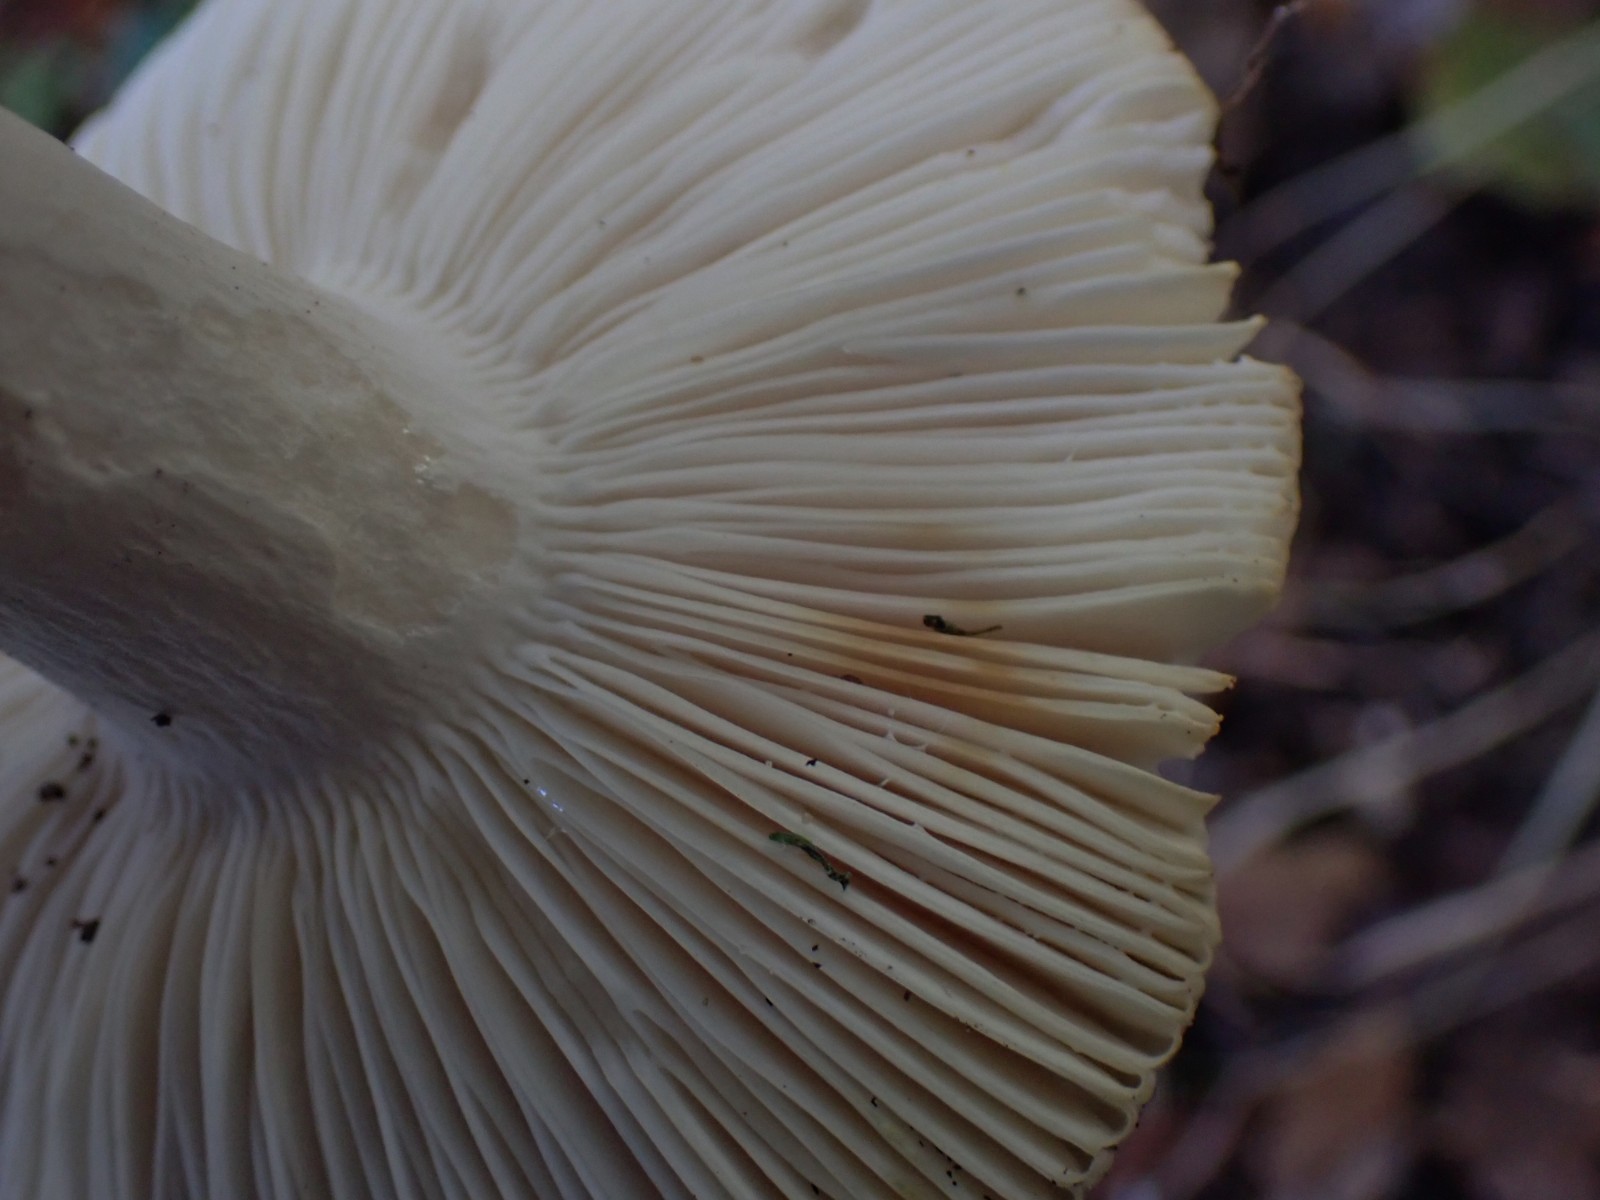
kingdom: Fungi
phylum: Basidiomycota
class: Agaricomycetes
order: Russulales
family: Russulaceae
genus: Russula
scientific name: Russula
